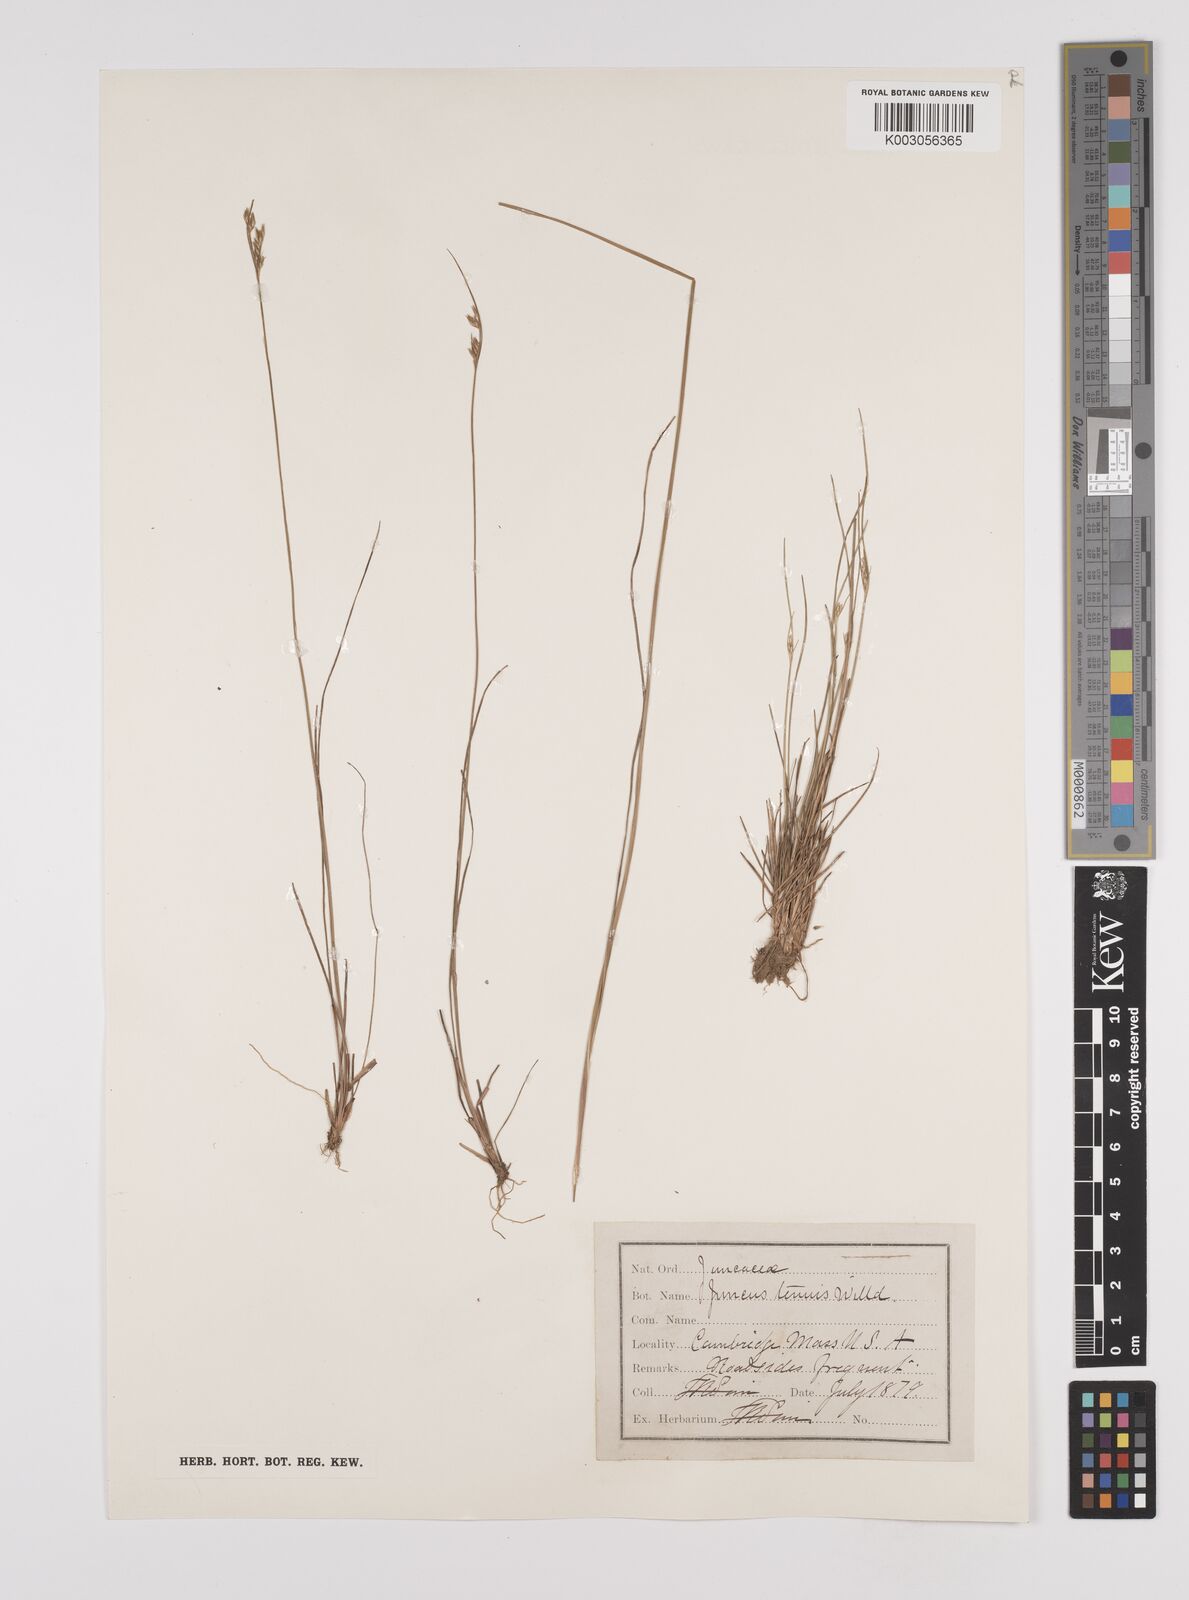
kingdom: Plantae
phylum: Tracheophyta
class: Liliopsida
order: Poales
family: Juncaceae
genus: Juncus
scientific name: Juncus tenuis
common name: Slender rush
